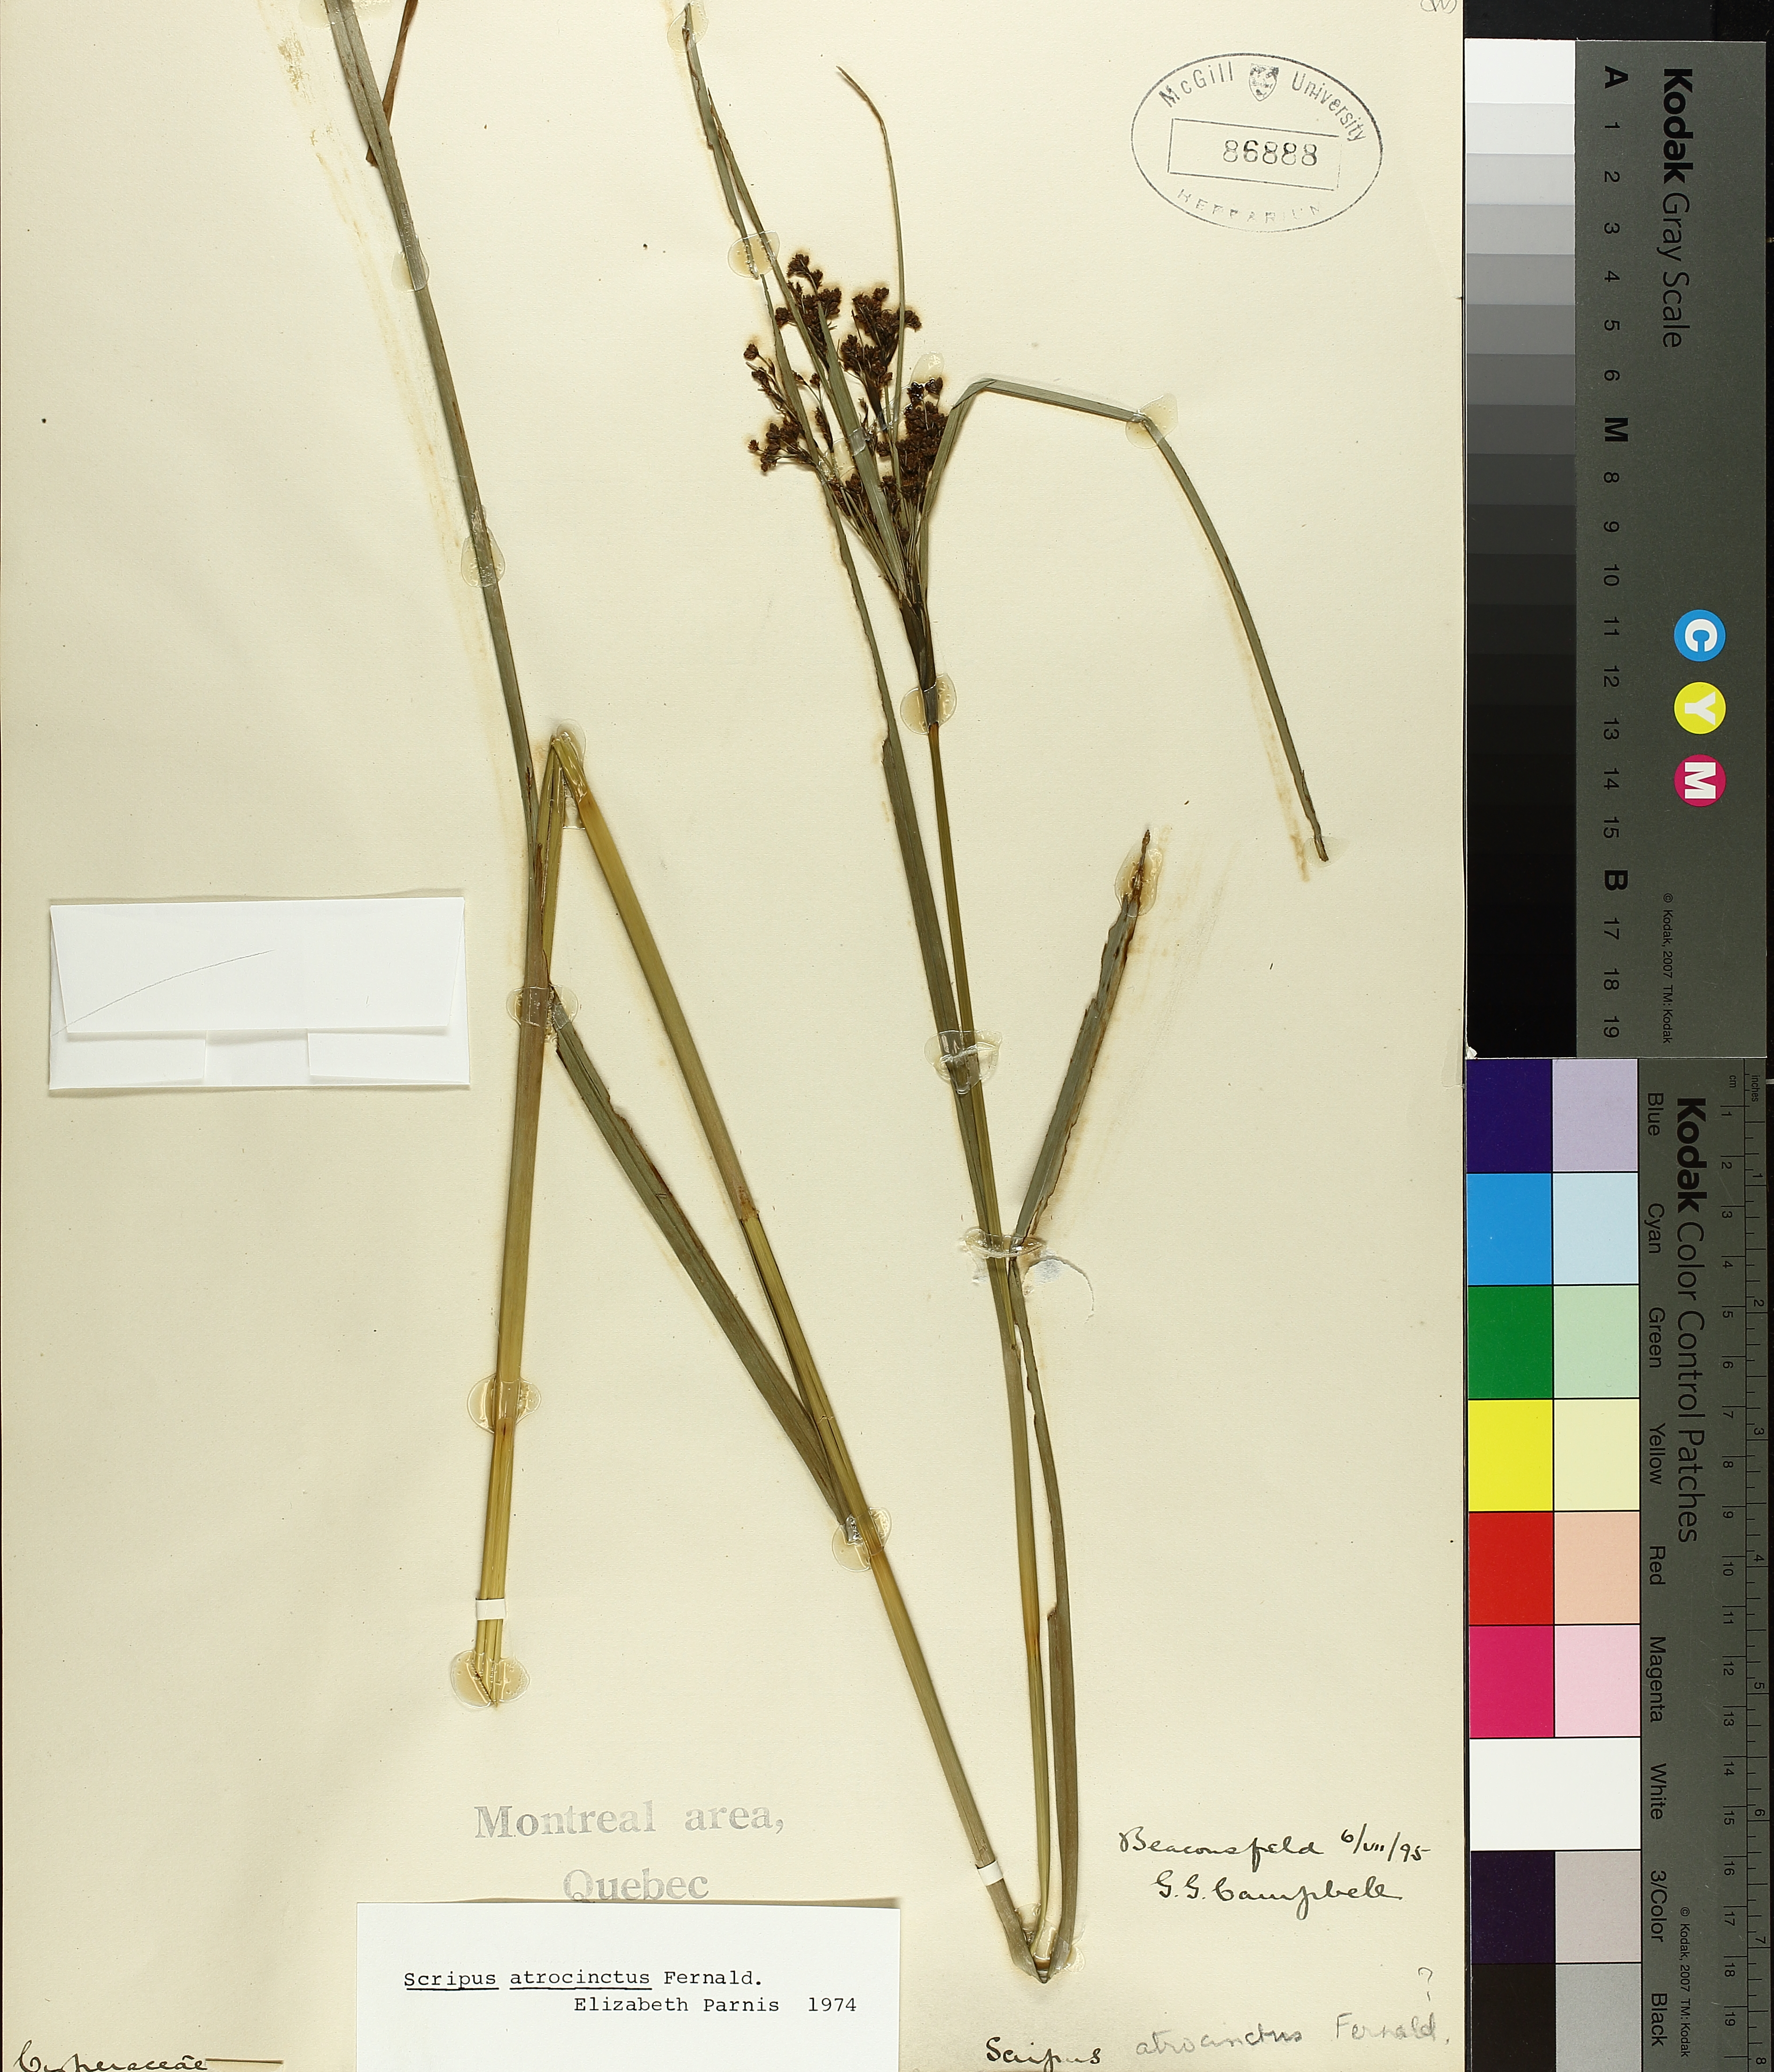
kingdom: Plantae
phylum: Tracheophyta
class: Liliopsida
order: Poales
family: Cyperaceae
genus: Scirpus
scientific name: Scirpus atrocinctus
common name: Black-girdled bulrush
